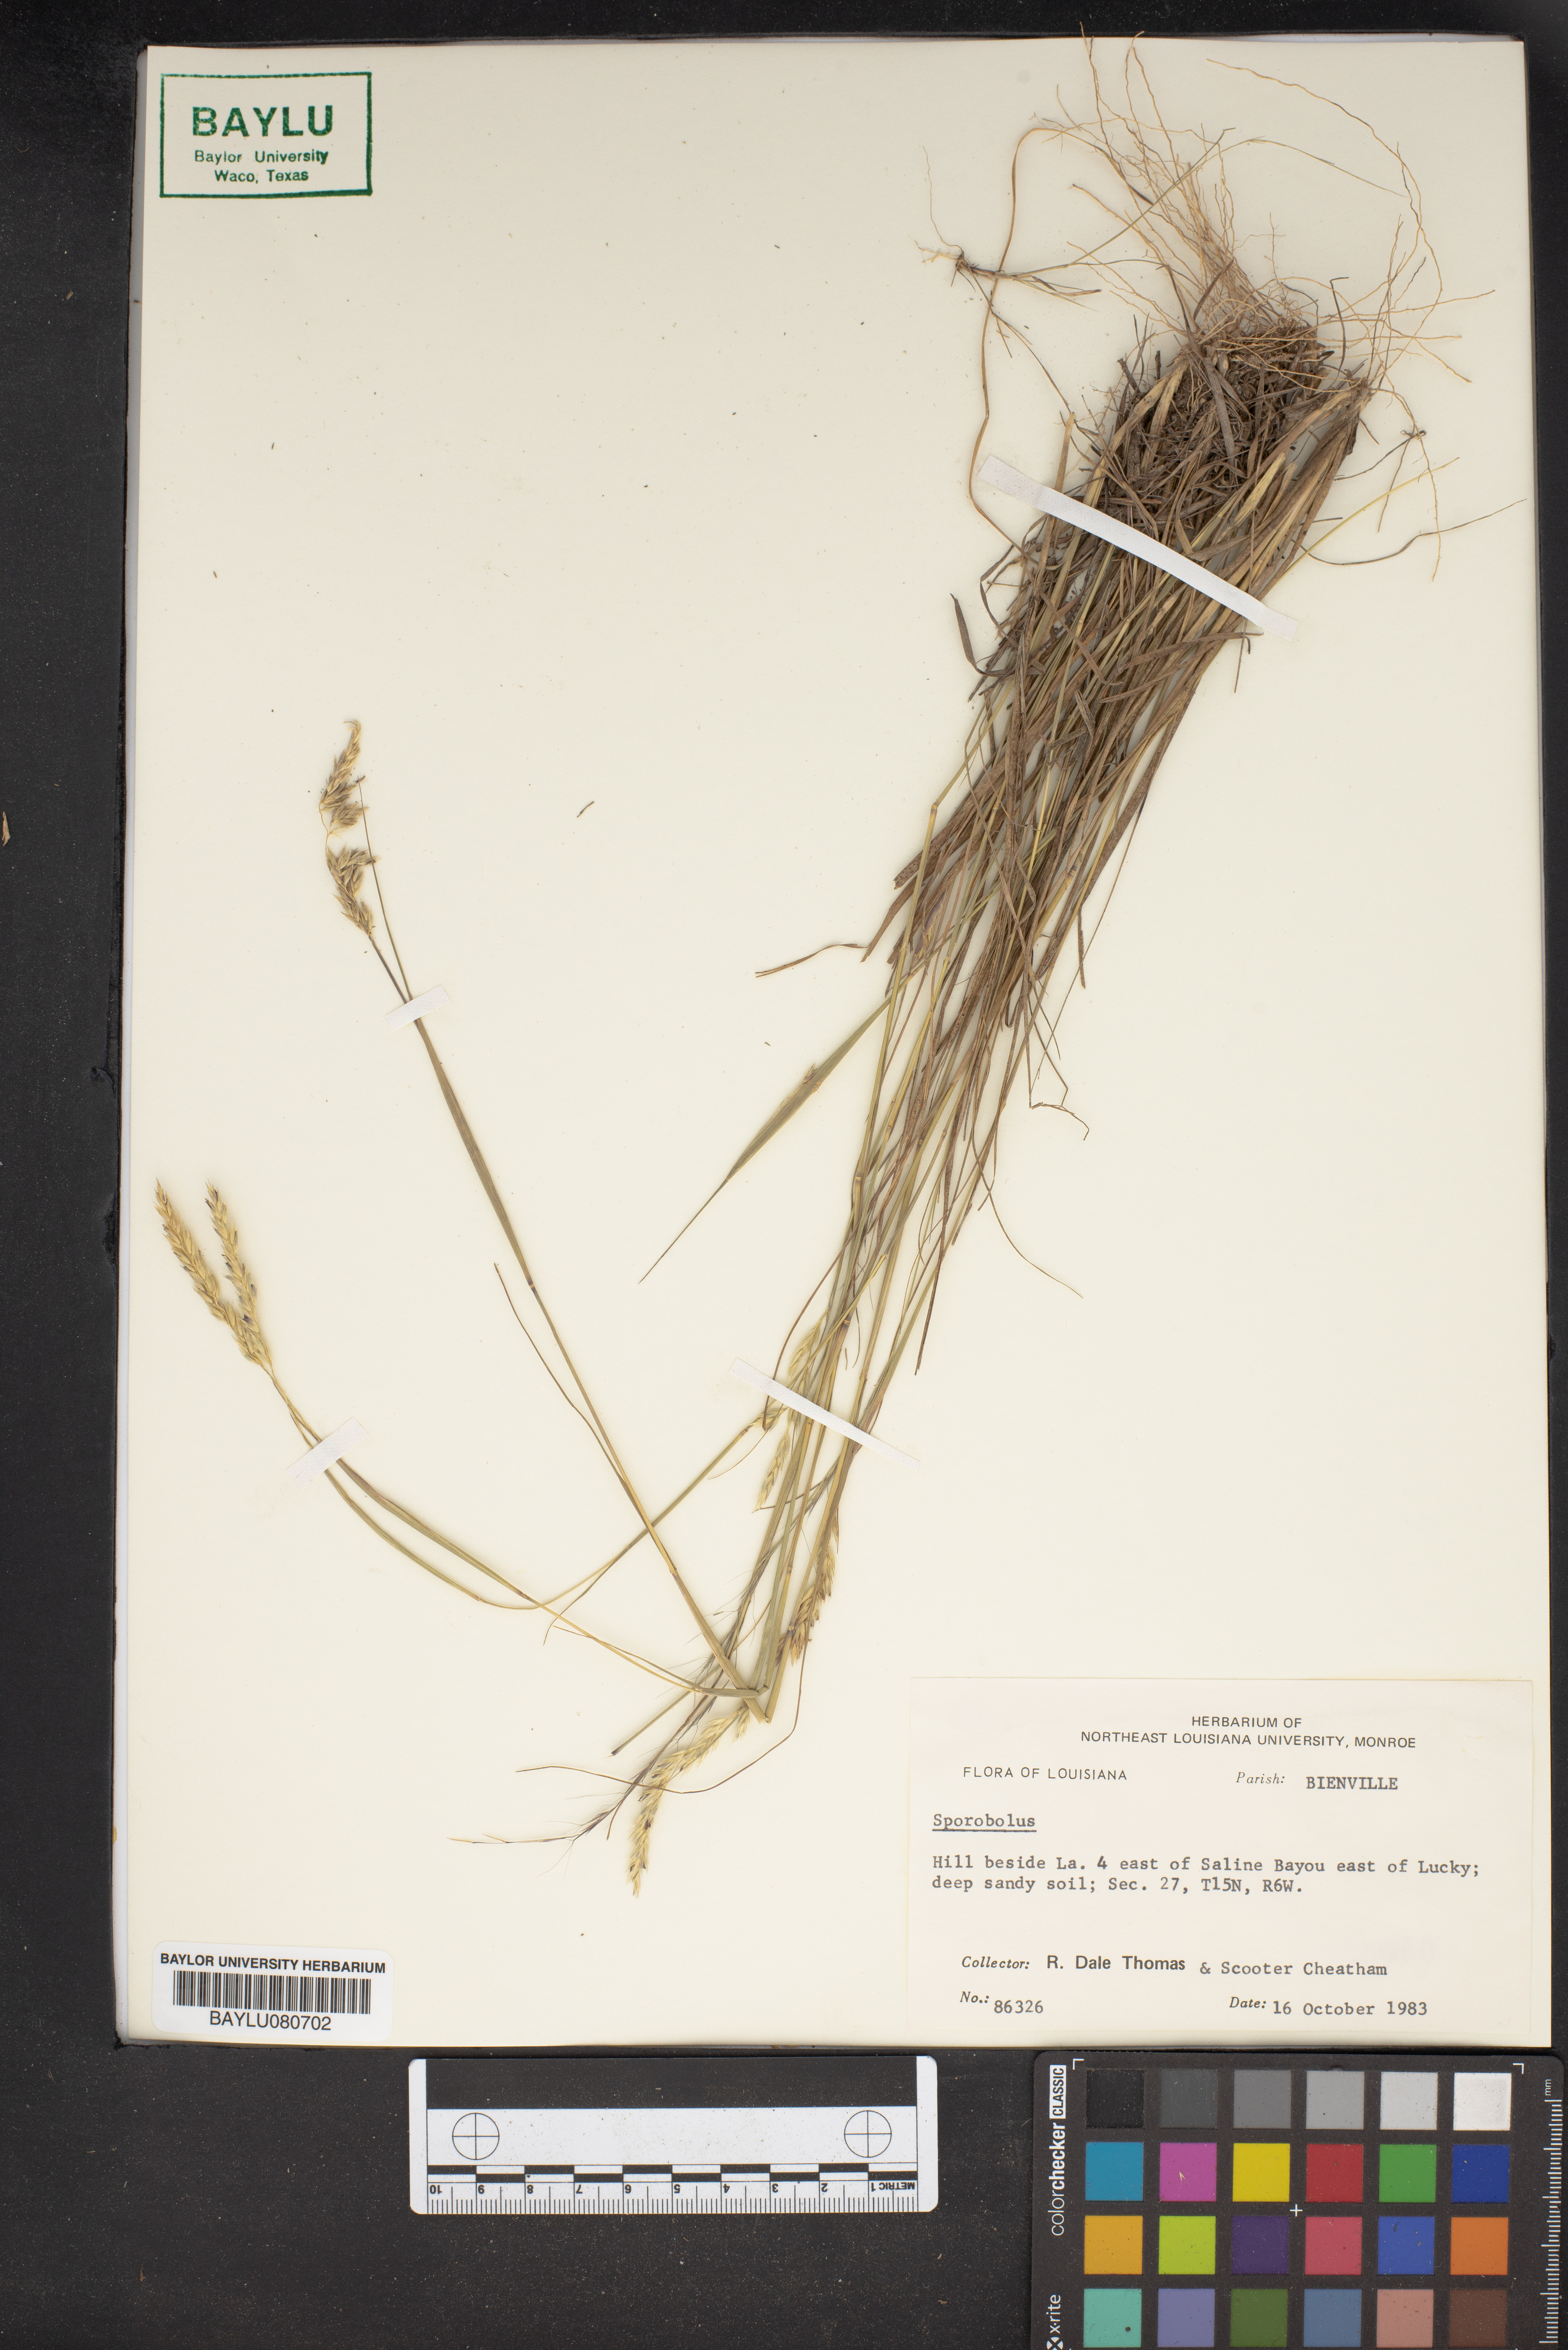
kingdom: Plantae
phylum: Tracheophyta
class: Liliopsida
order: Poales
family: Poaceae
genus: Sporobolus
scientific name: Sporobolus
